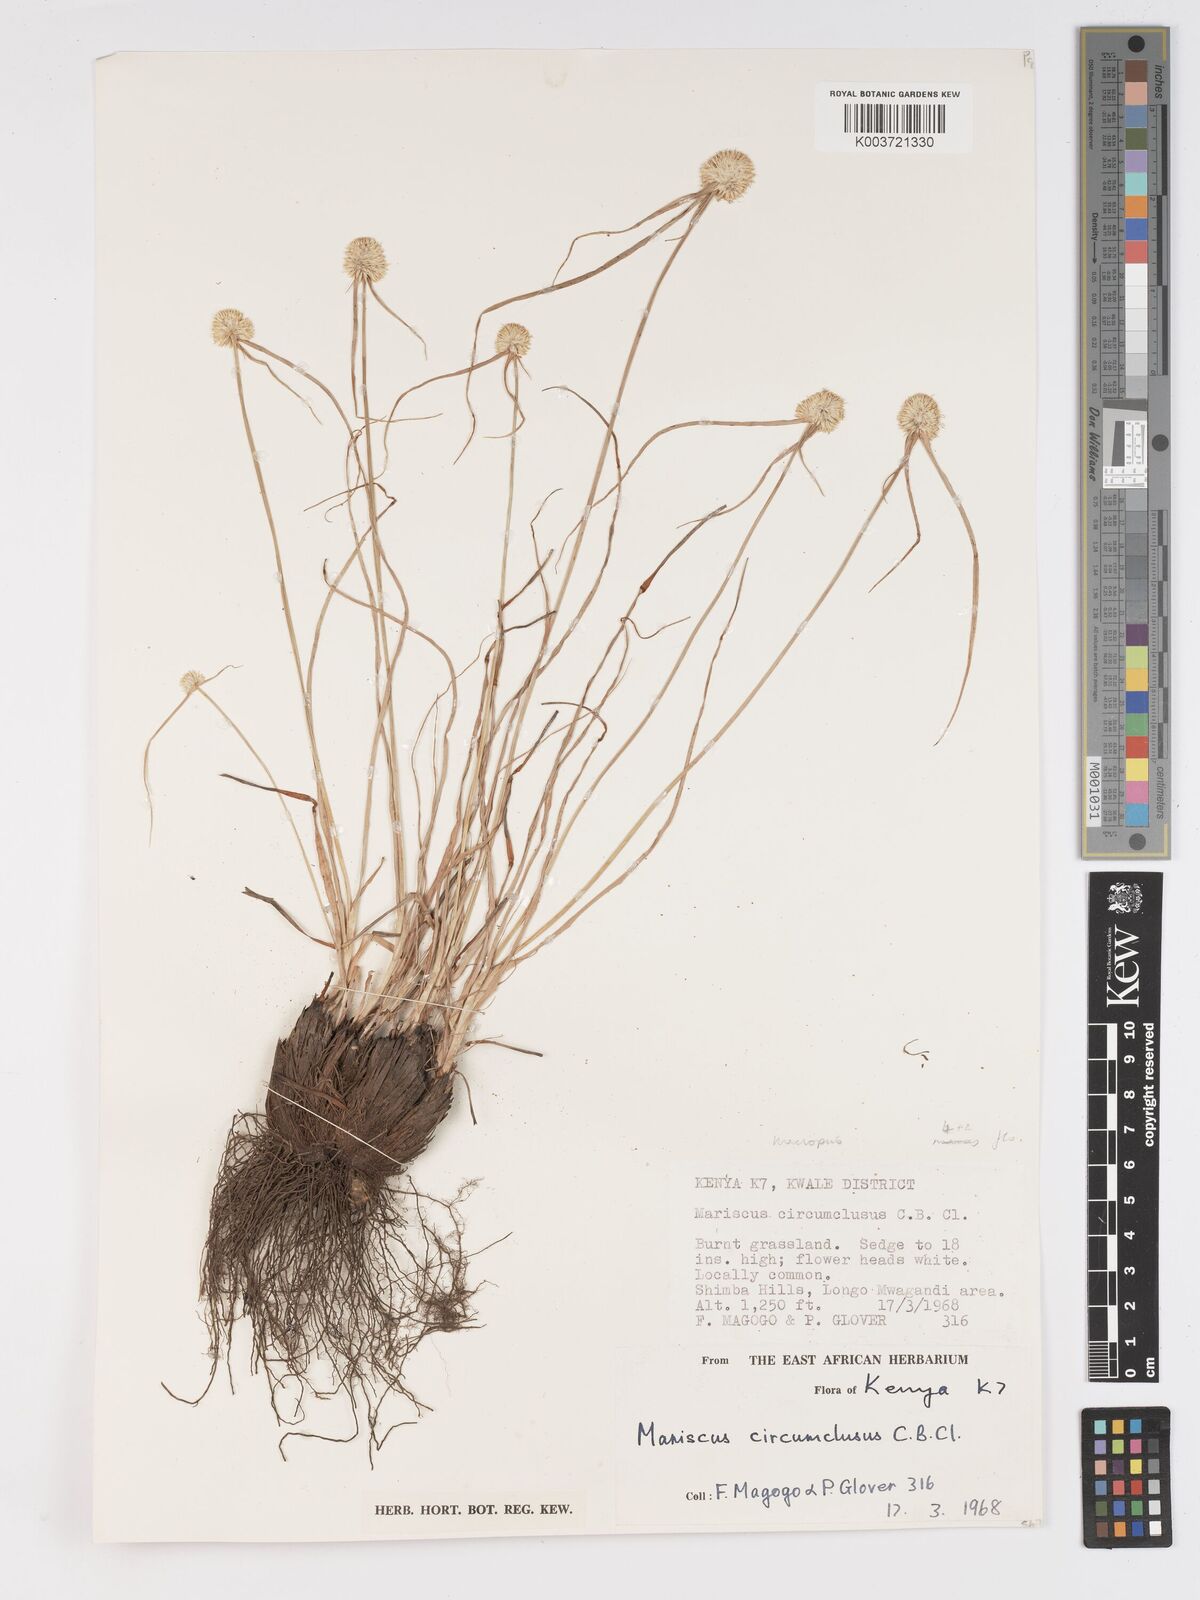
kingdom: Plantae
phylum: Tracheophyta
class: Liliopsida
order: Poales
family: Cyperaceae
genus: Cyperus
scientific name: Cyperus mollipes
